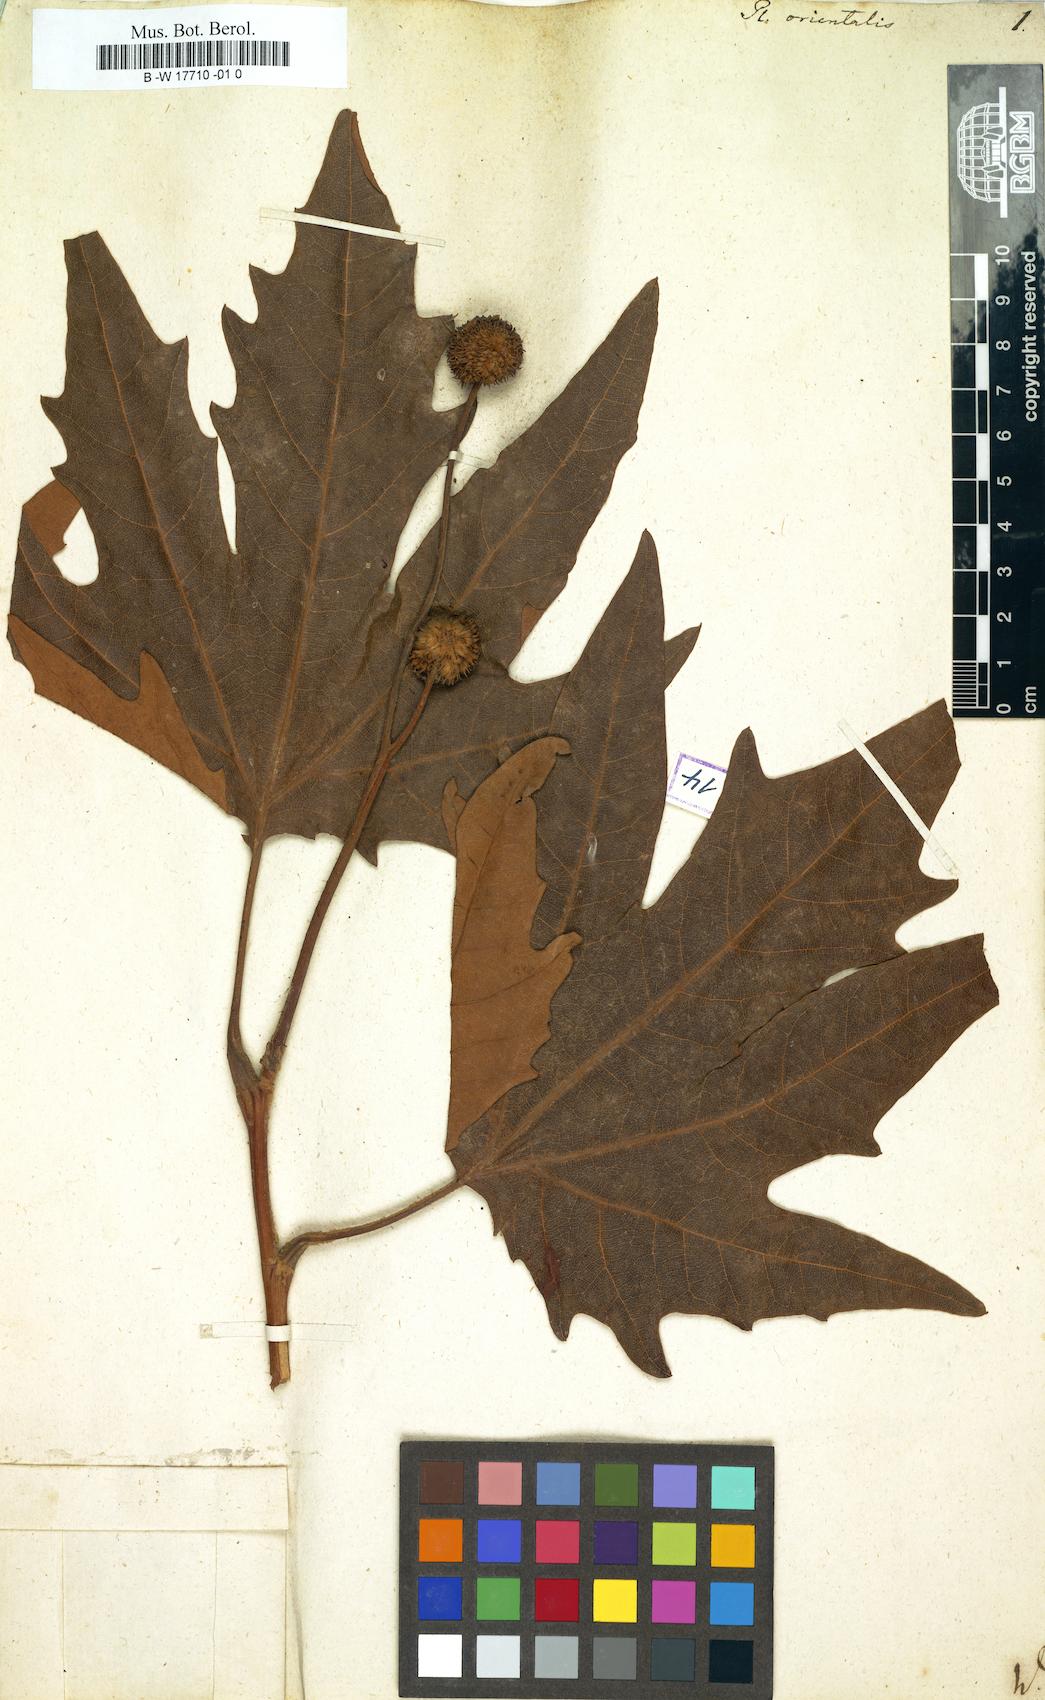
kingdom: Plantae
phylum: Tracheophyta
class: Magnoliopsida
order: Proteales
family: Platanaceae
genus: Platanus
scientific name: Platanus orientalis
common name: Oriental plane
